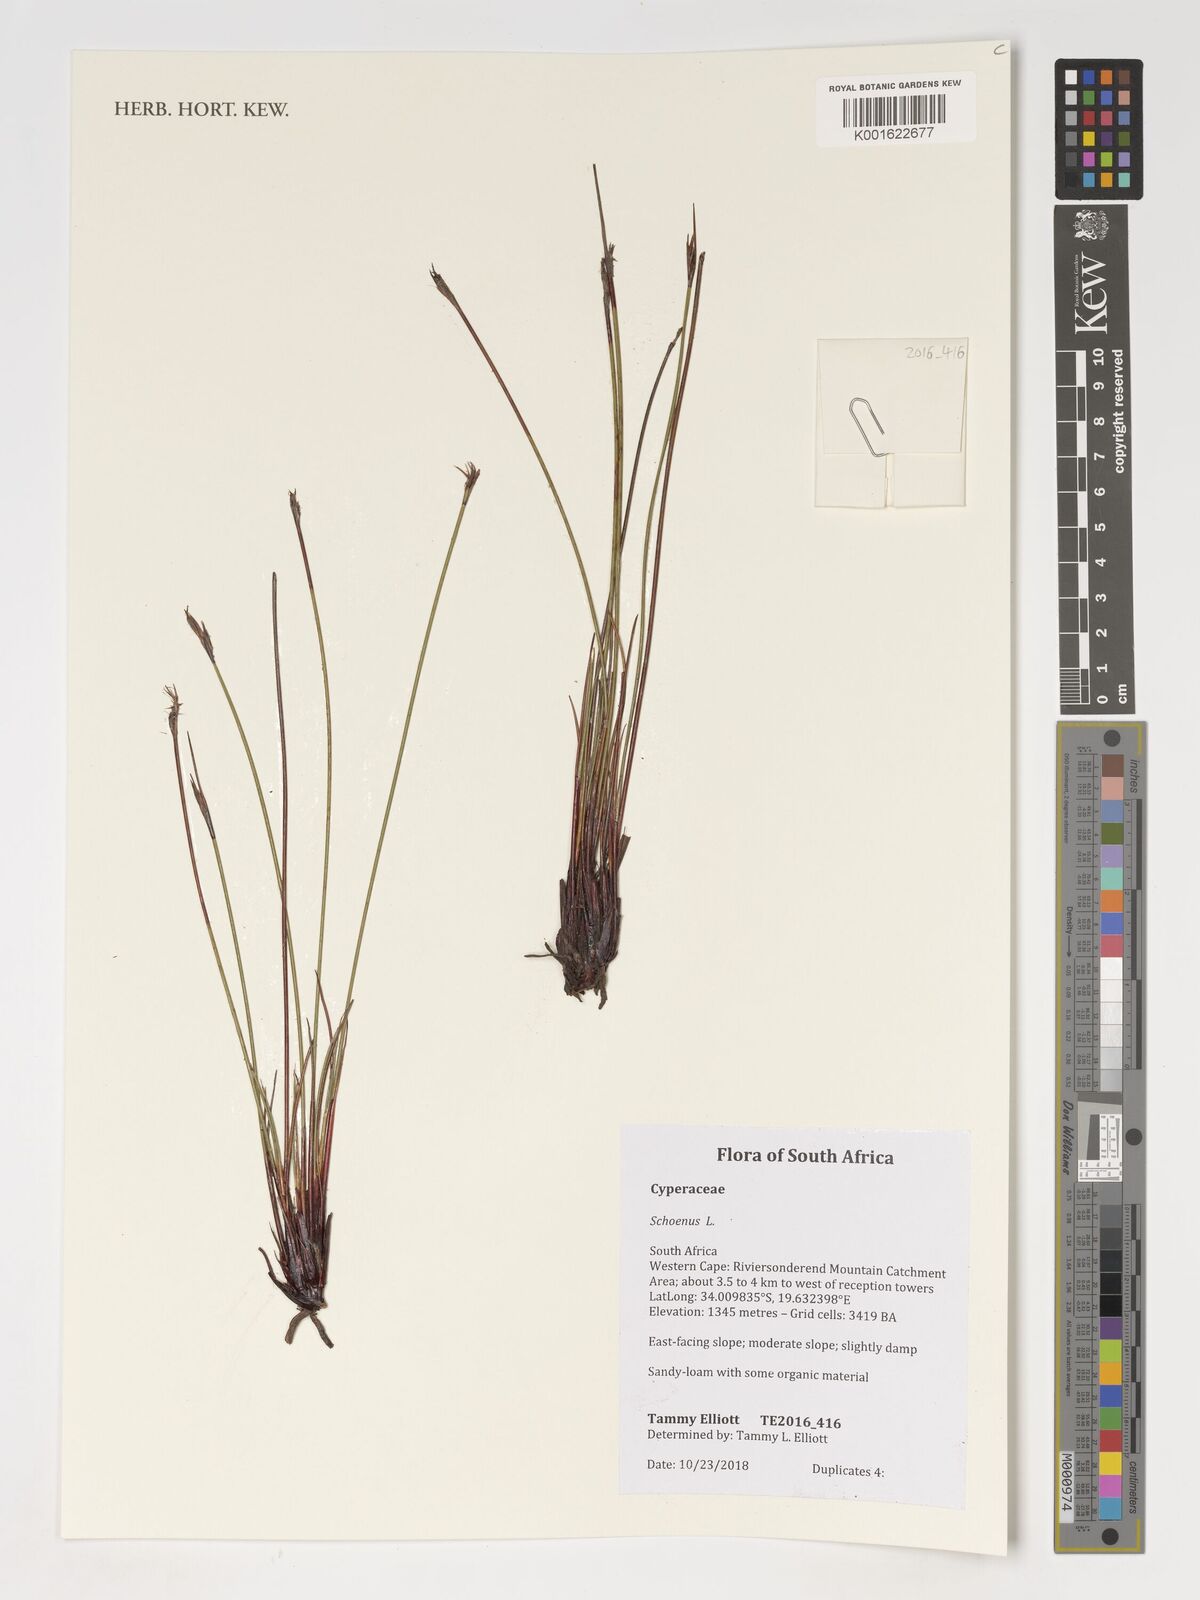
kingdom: Plantae
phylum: Tracheophyta
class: Liliopsida
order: Poales
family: Cyperaceae
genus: Schoenus
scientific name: Schoenus
